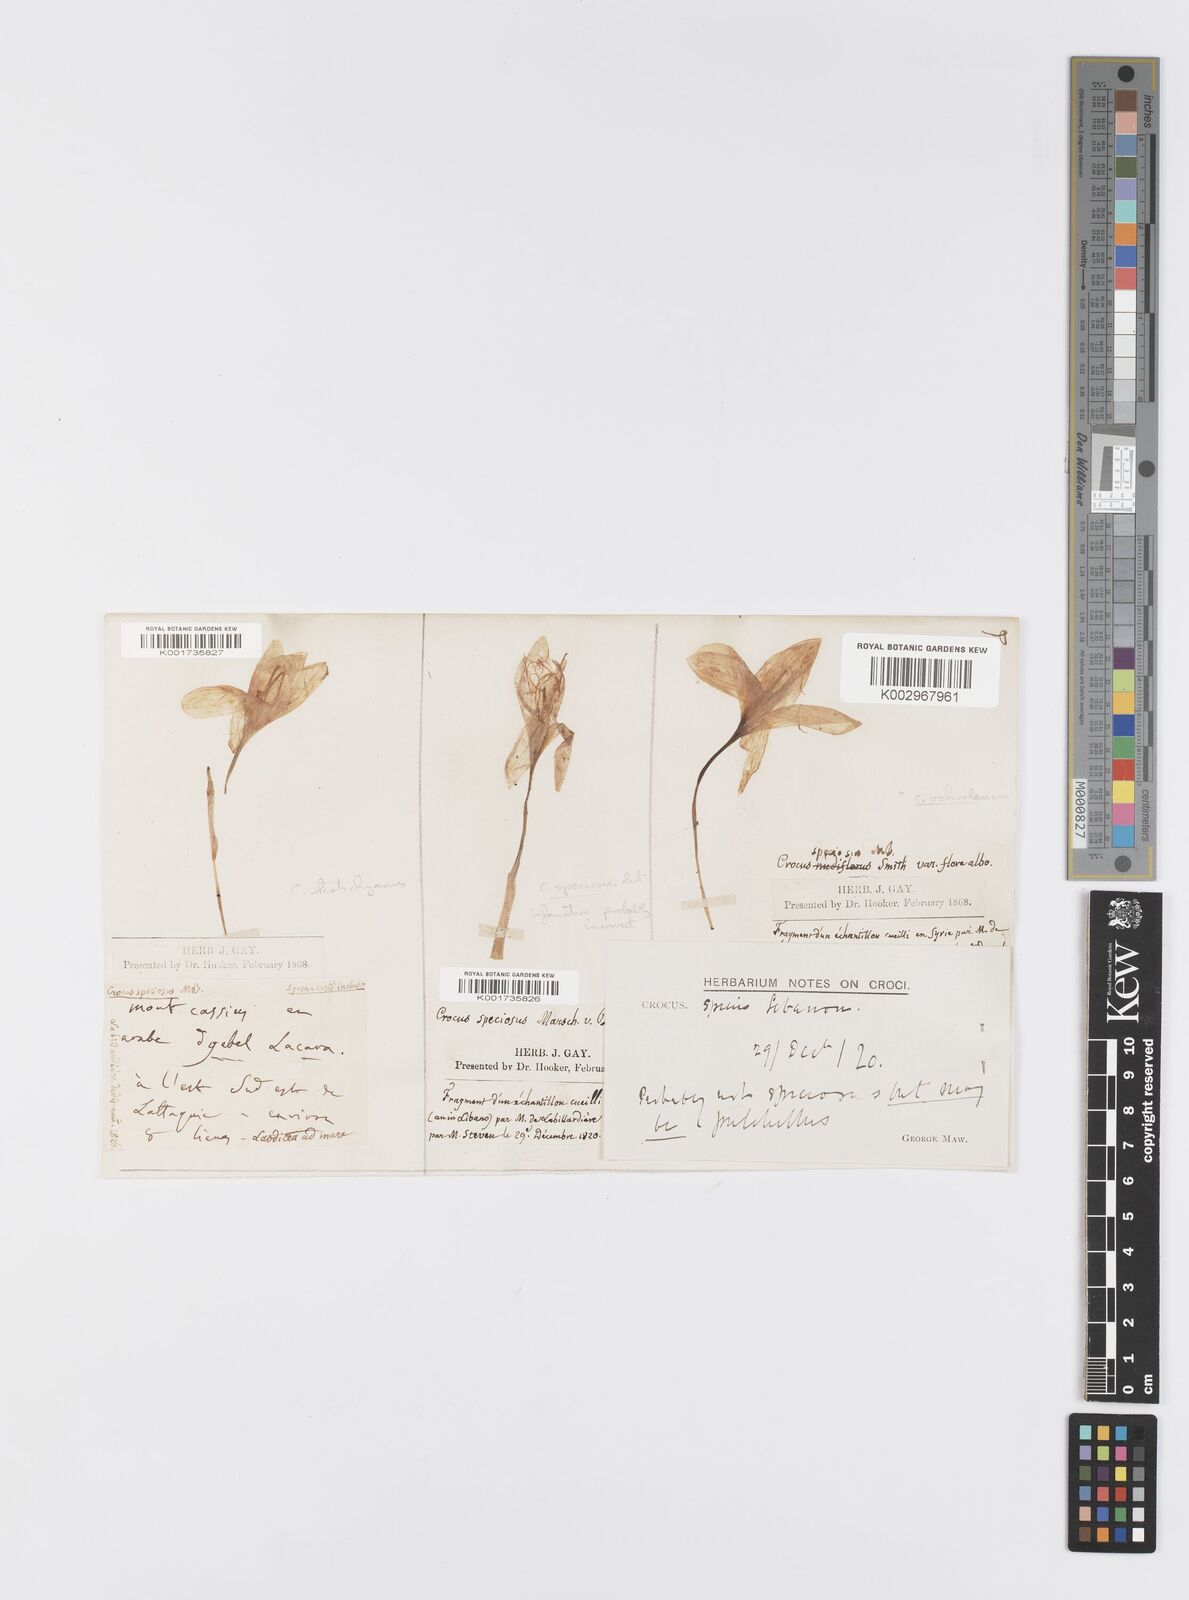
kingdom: Plantae
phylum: Tracheophyta
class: Liliopsida
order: Asparagales
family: Iridaceae
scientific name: Iridaceae
